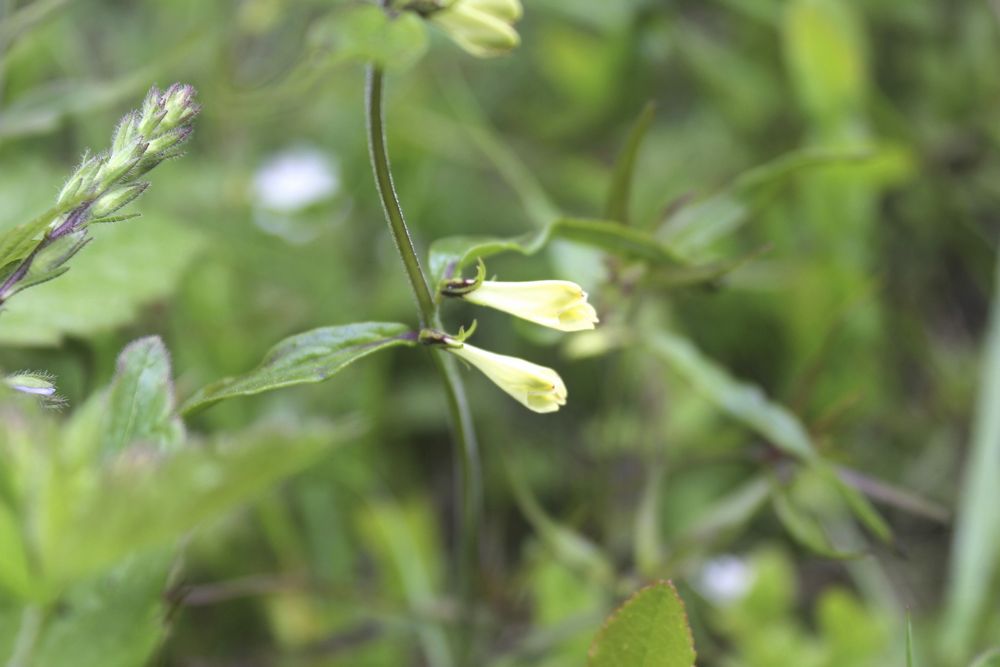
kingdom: Plantae
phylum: Tracheophyta
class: Magnoliopsida
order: Lamiales
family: Orobanchaceae
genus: Melampyrum
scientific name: Melampyrum pratense
